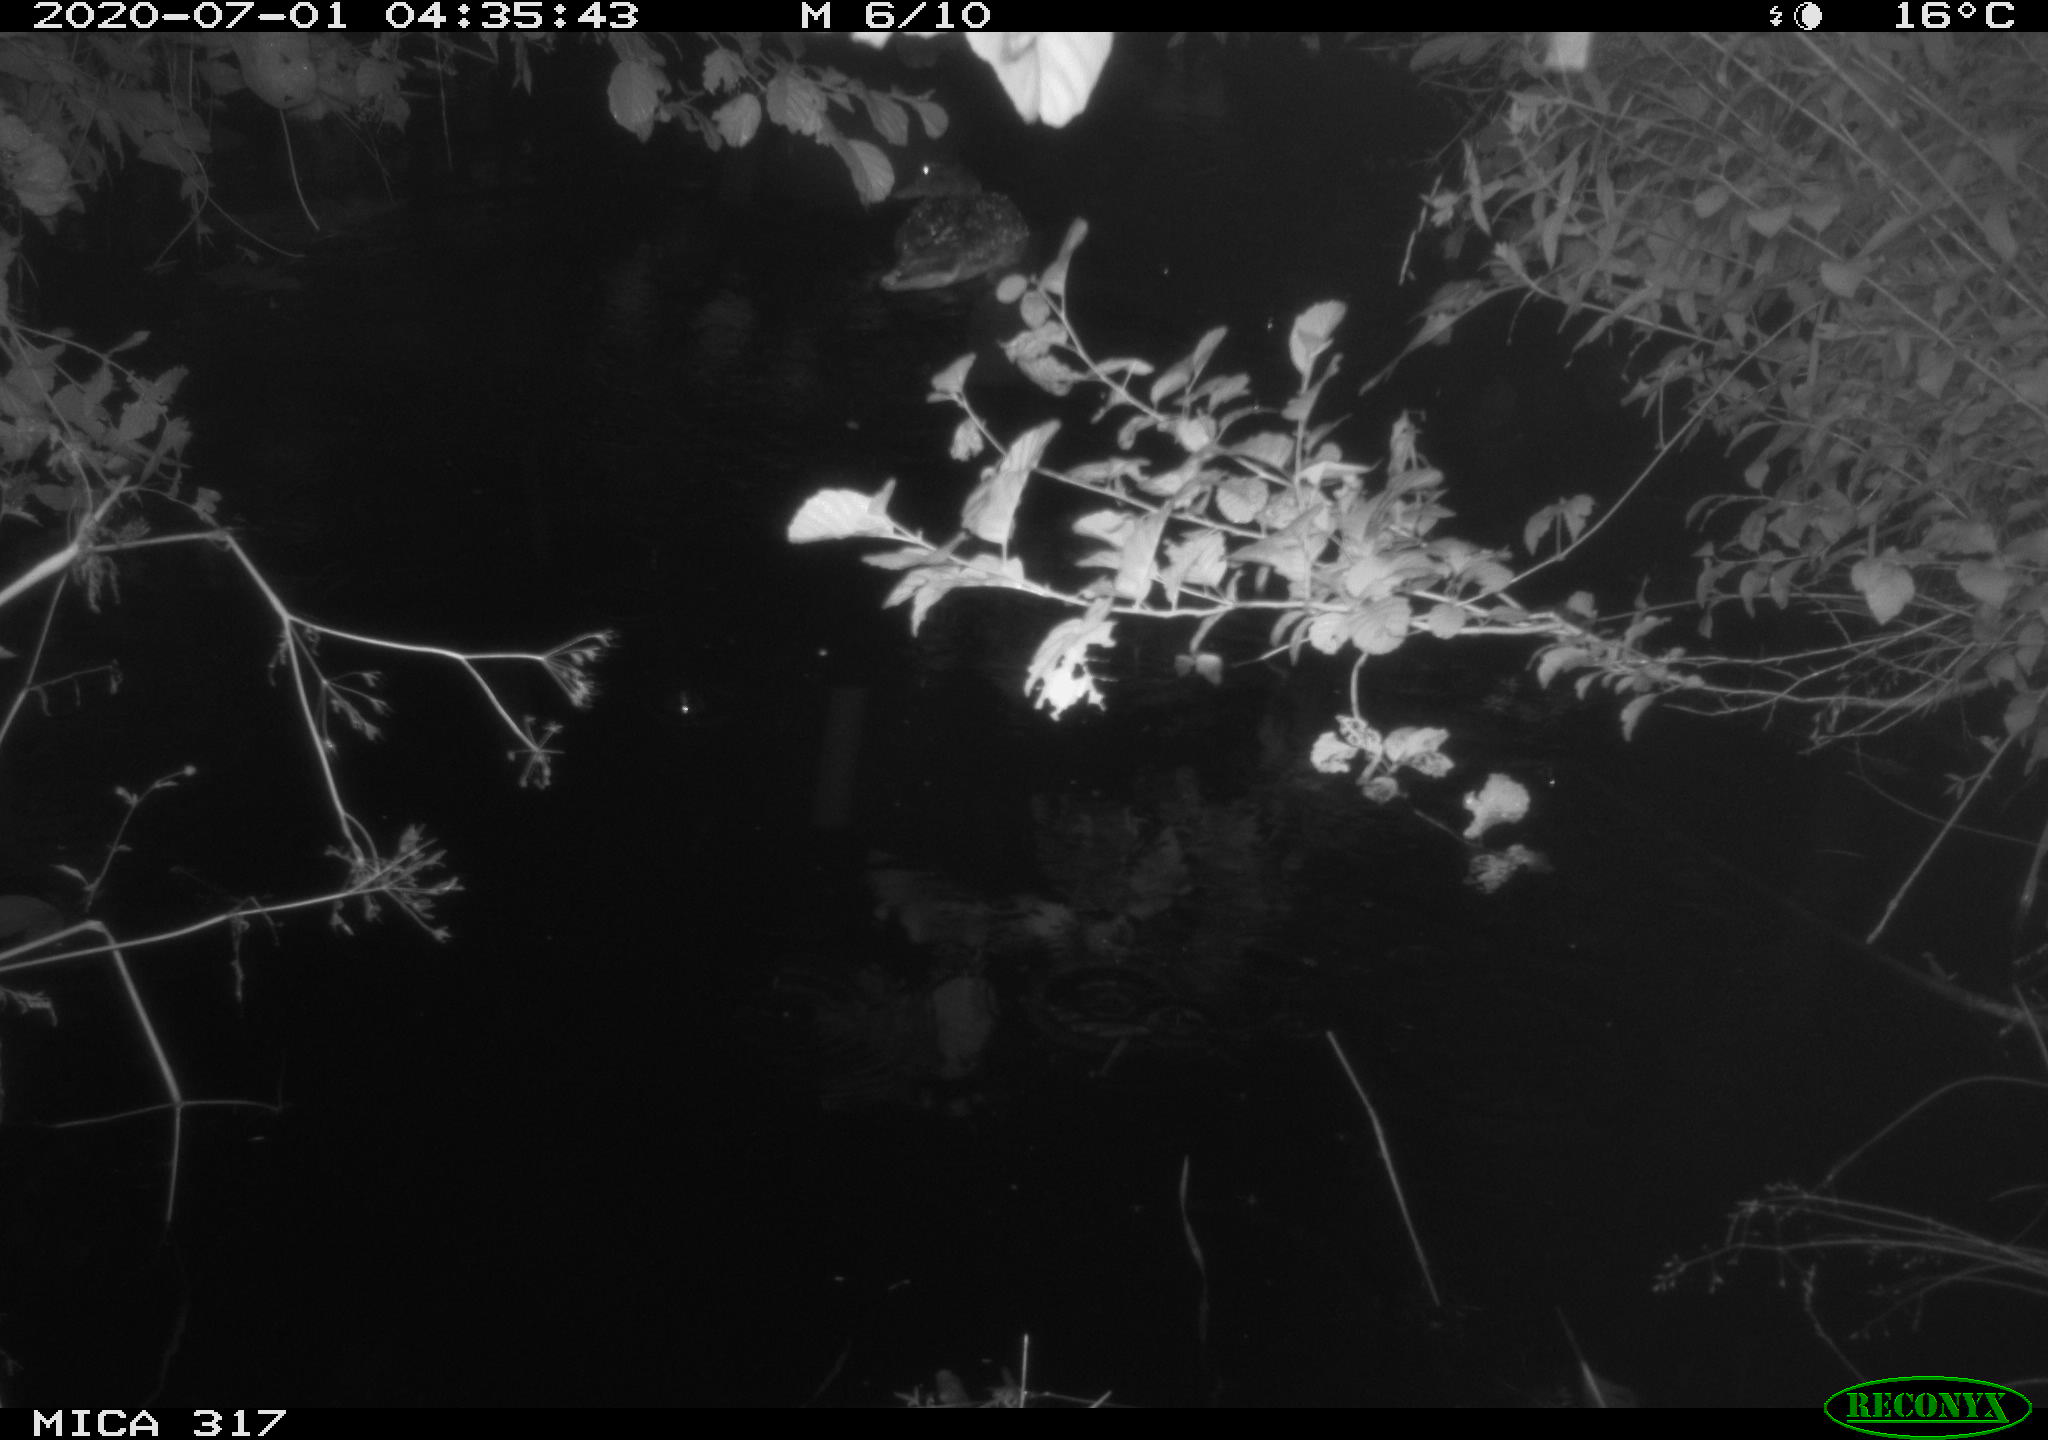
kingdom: Animalia
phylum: Chordata
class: Aves
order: Anseriformes
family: Anatidae
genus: Anas
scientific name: Anas platyrhynchos
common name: Mallard
